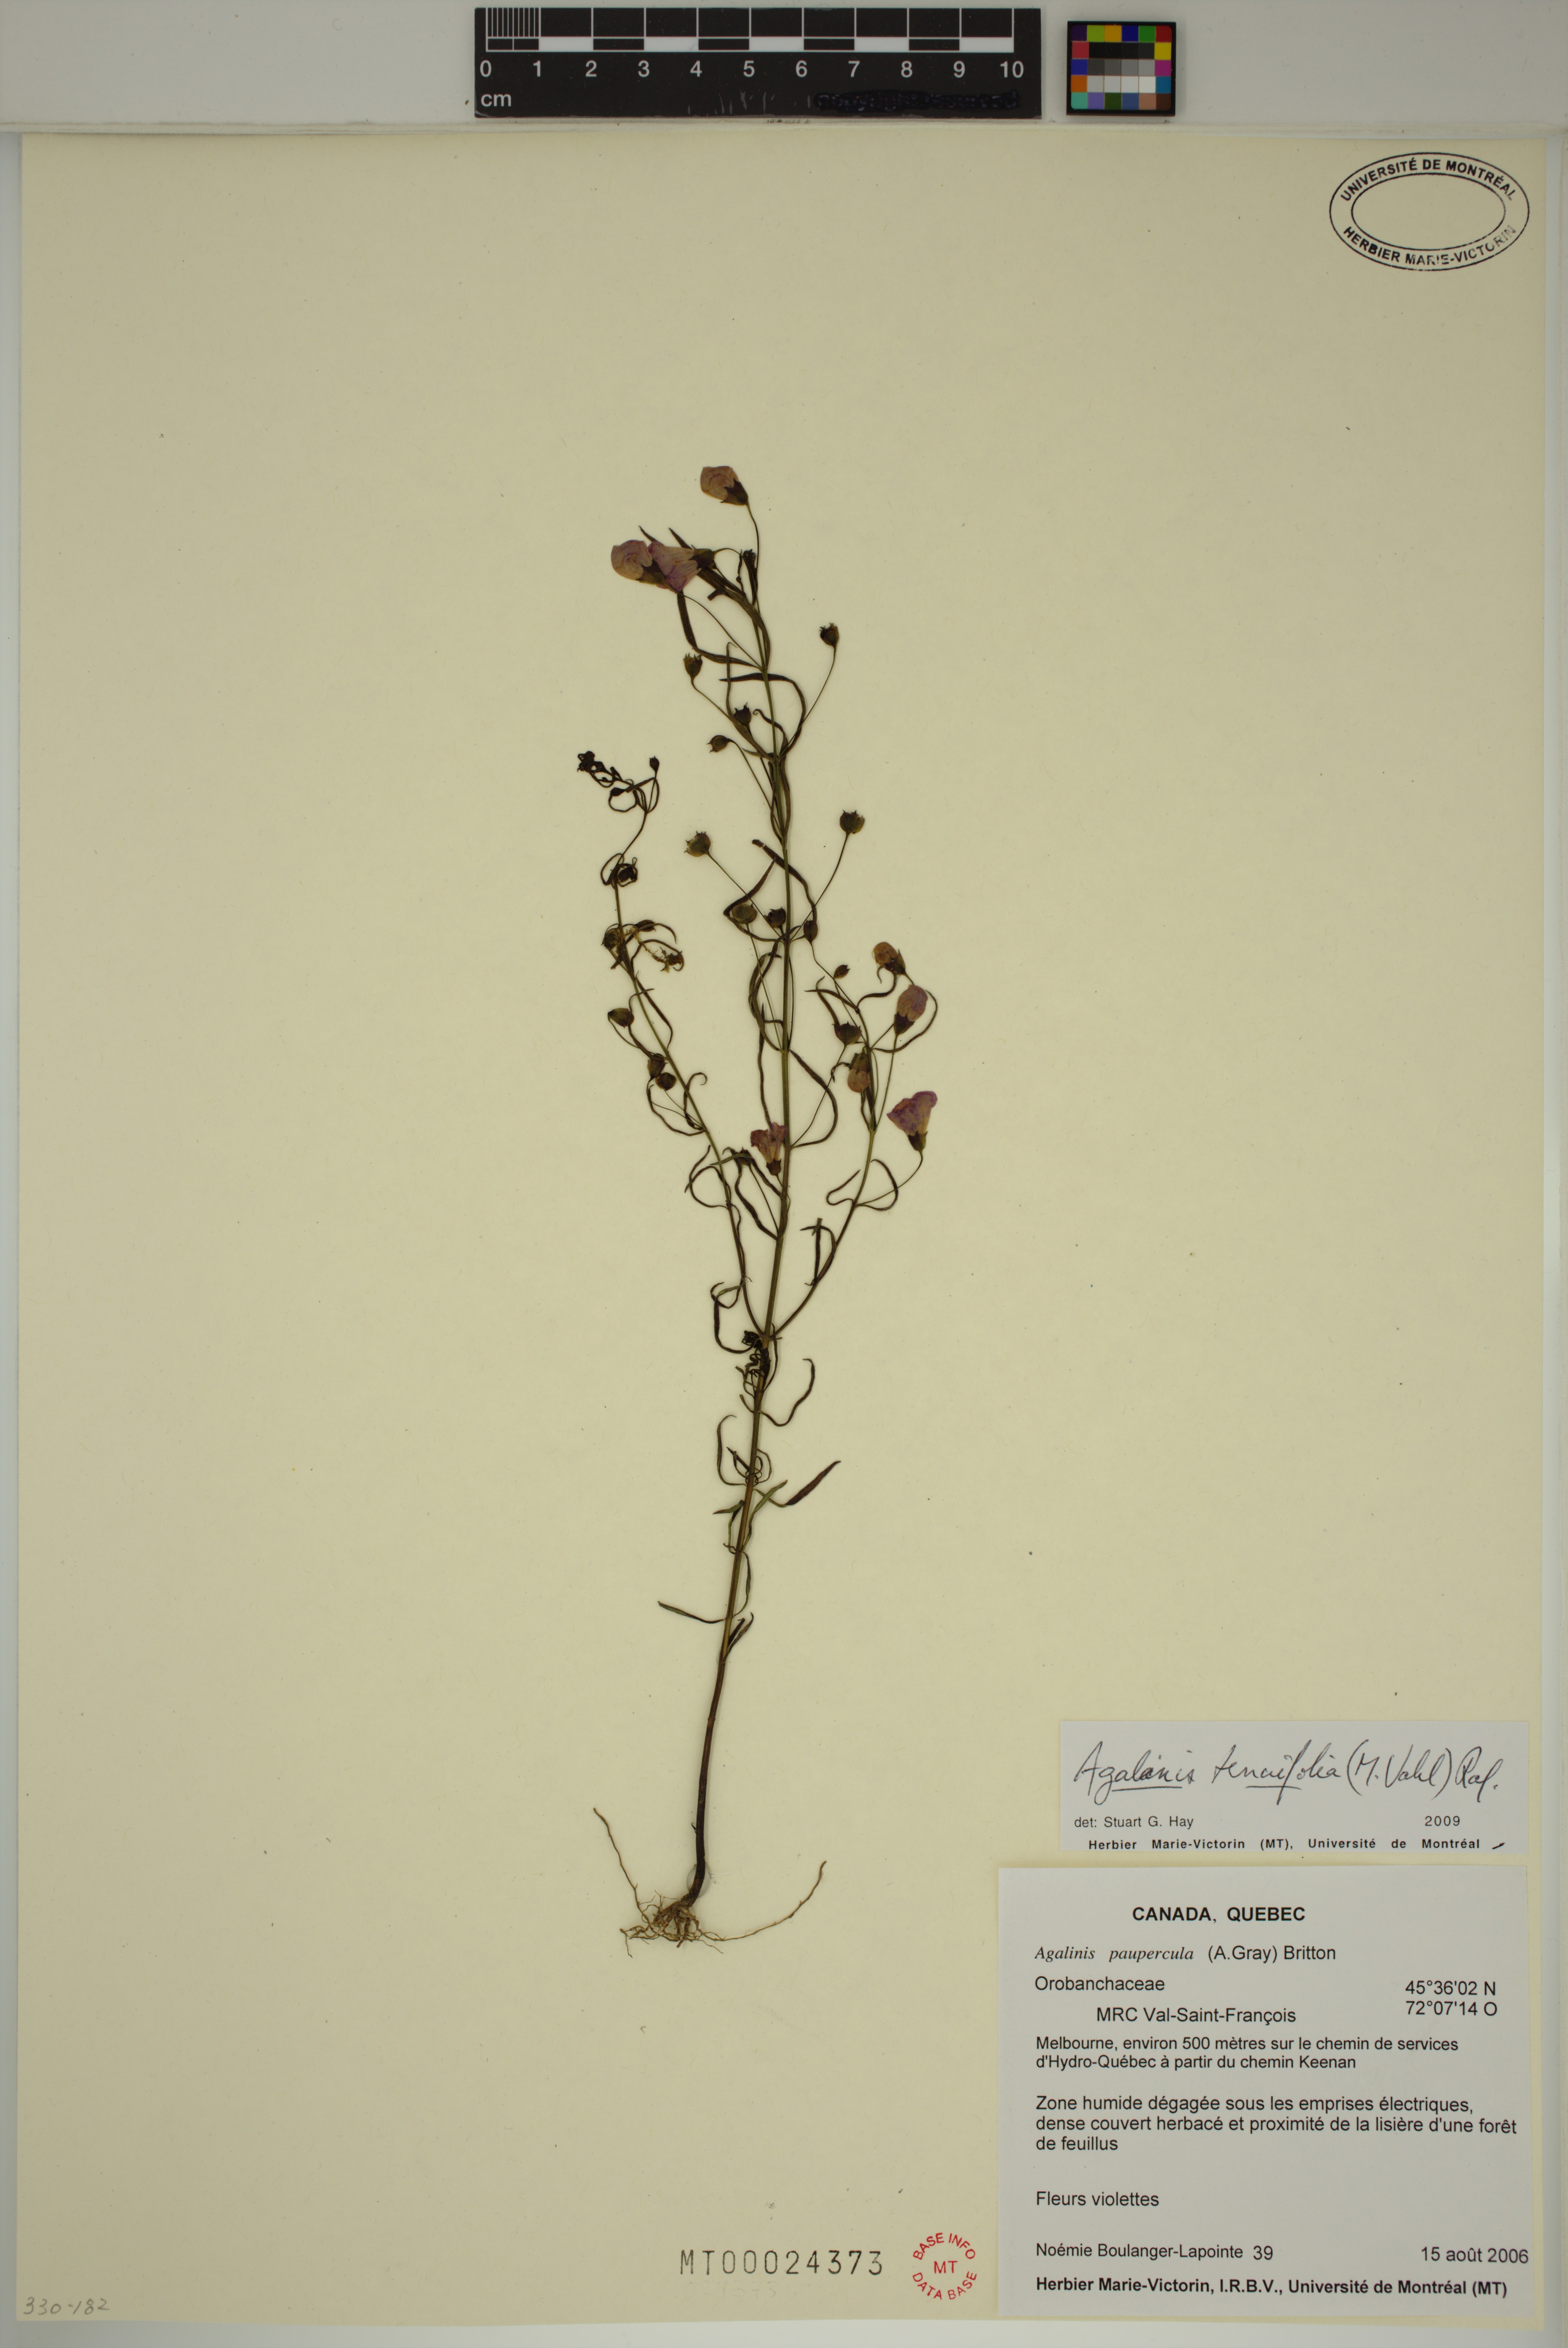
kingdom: Plantae
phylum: Tracheophyta
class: Magnoliopsida
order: Lamiales
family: Orobanchaceae
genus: Agalinis
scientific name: Agalinis tenuifolia
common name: Slender agalinis
